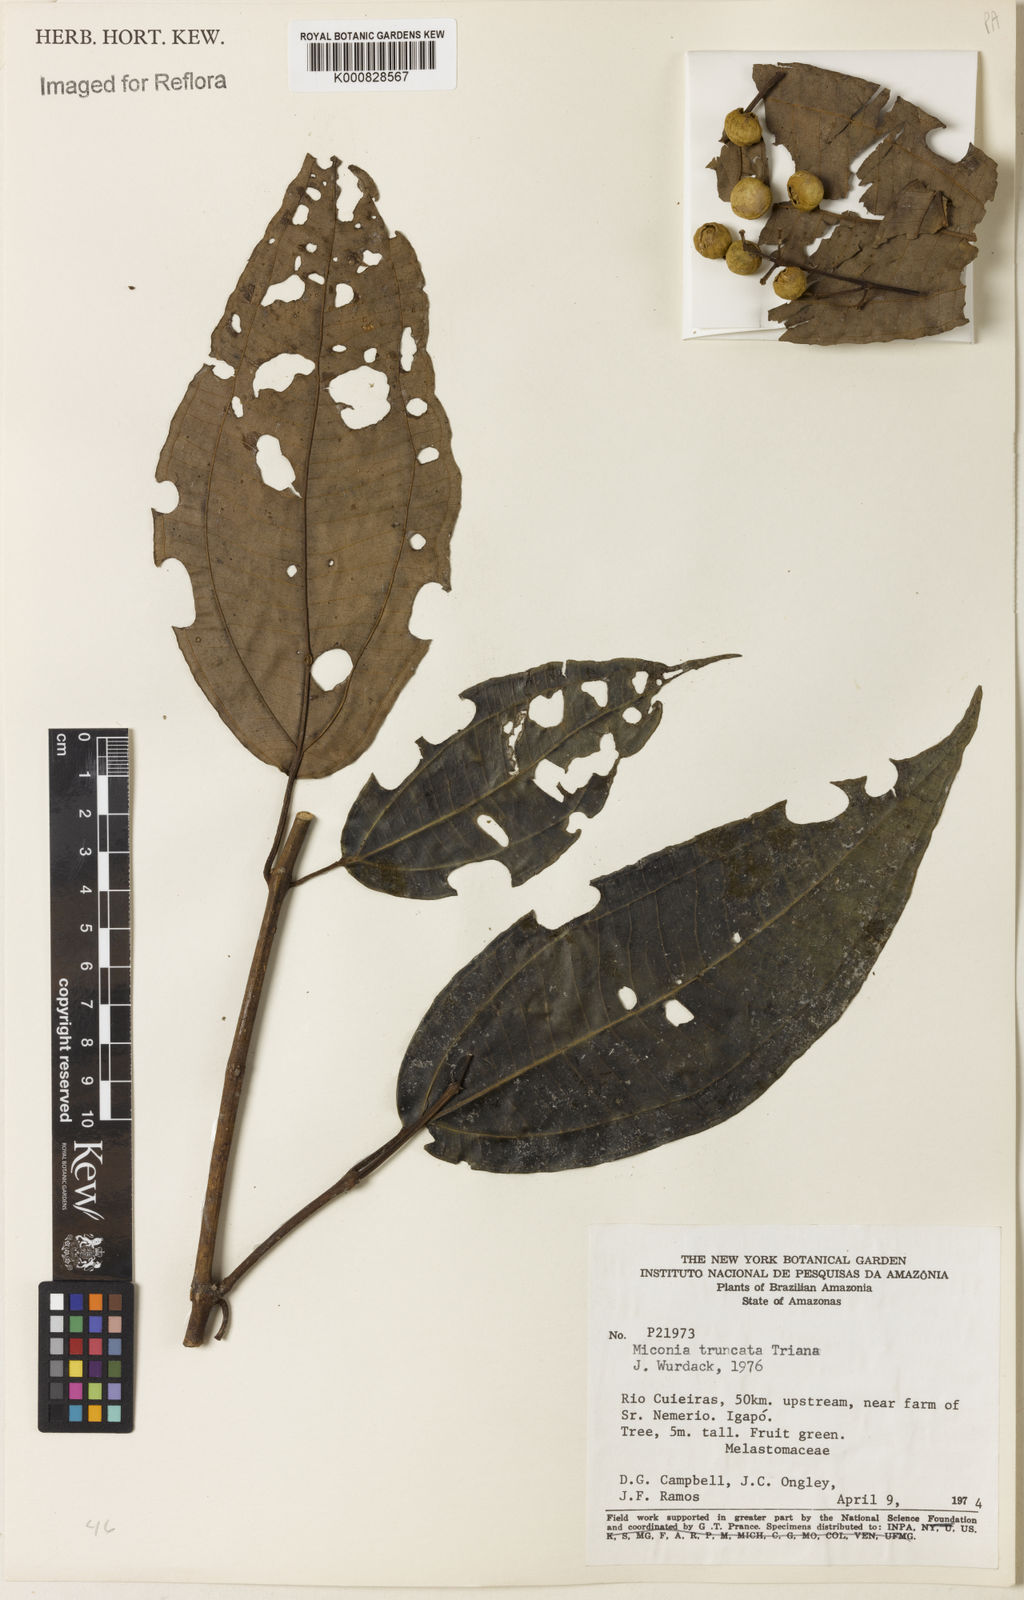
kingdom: Plantae
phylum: Tracheophyta
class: Magnoliopsida
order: Myrtales
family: Melastomataceae
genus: Miconia
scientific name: Miconia aurea
